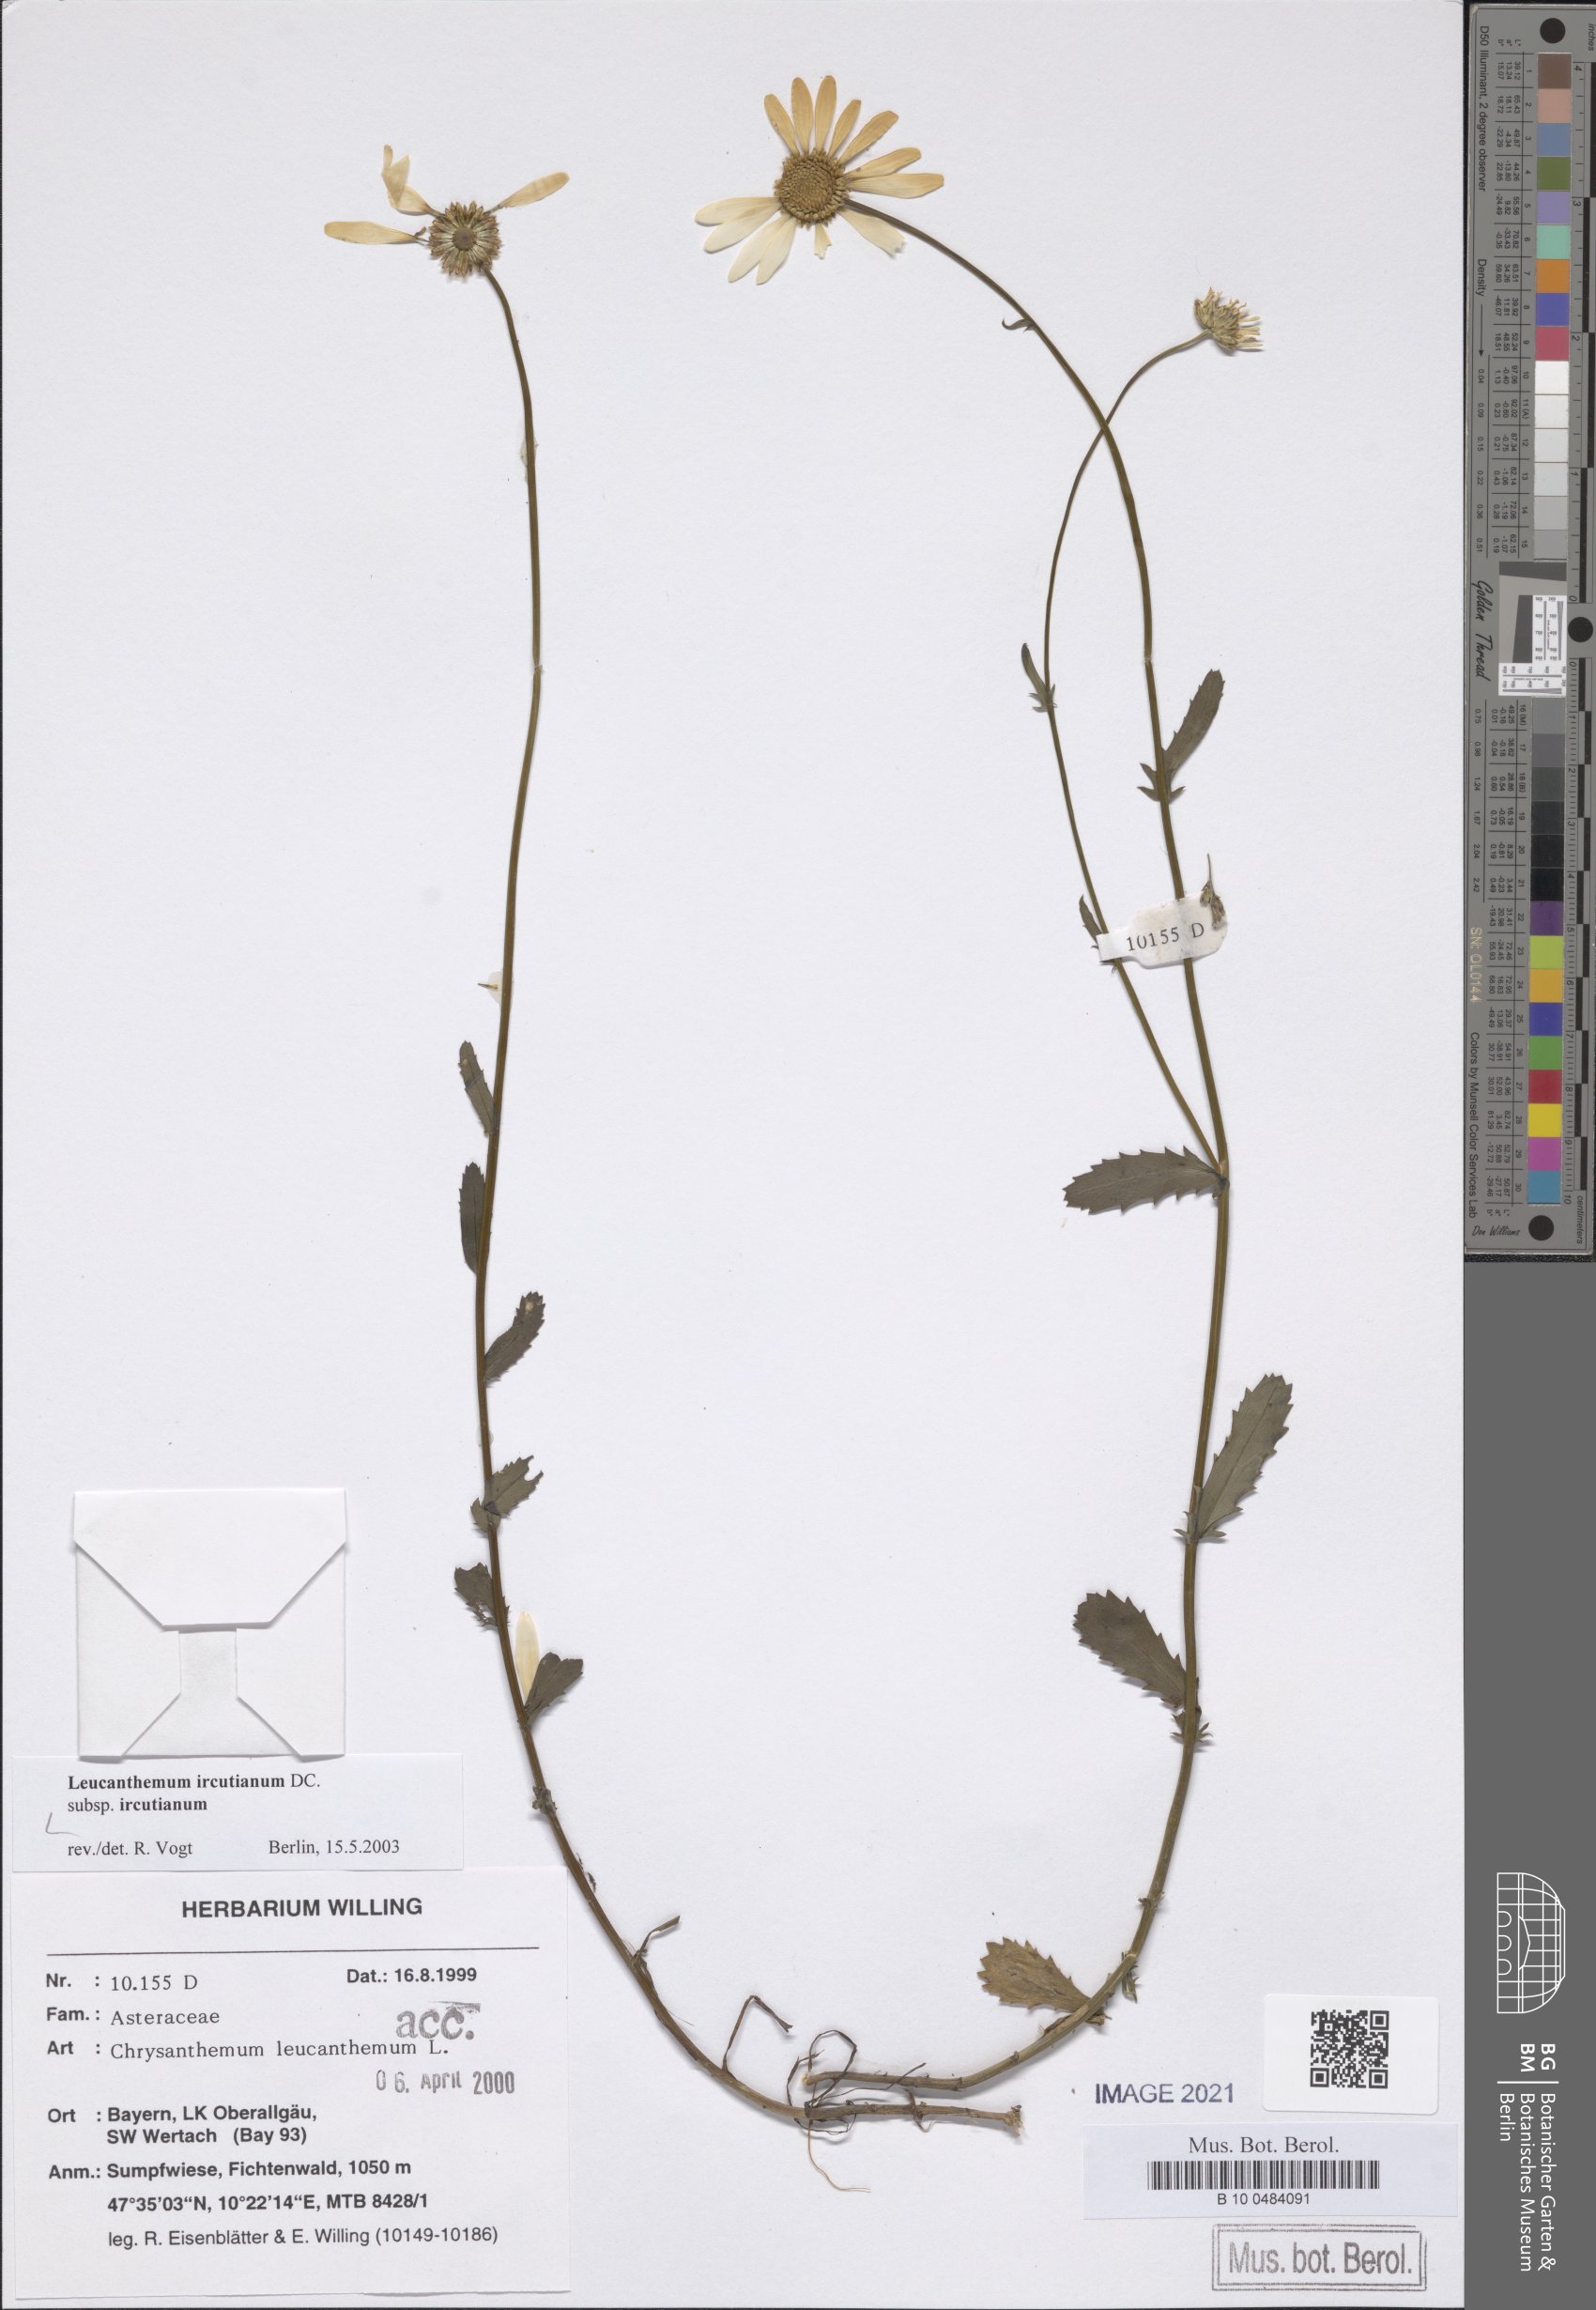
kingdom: Plantae
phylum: Tracheophyta
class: Magnoliopsida
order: Asterales
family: Asteraceae
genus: Leucanthemum
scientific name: Leucanthemum ircutianum
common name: Daisy
